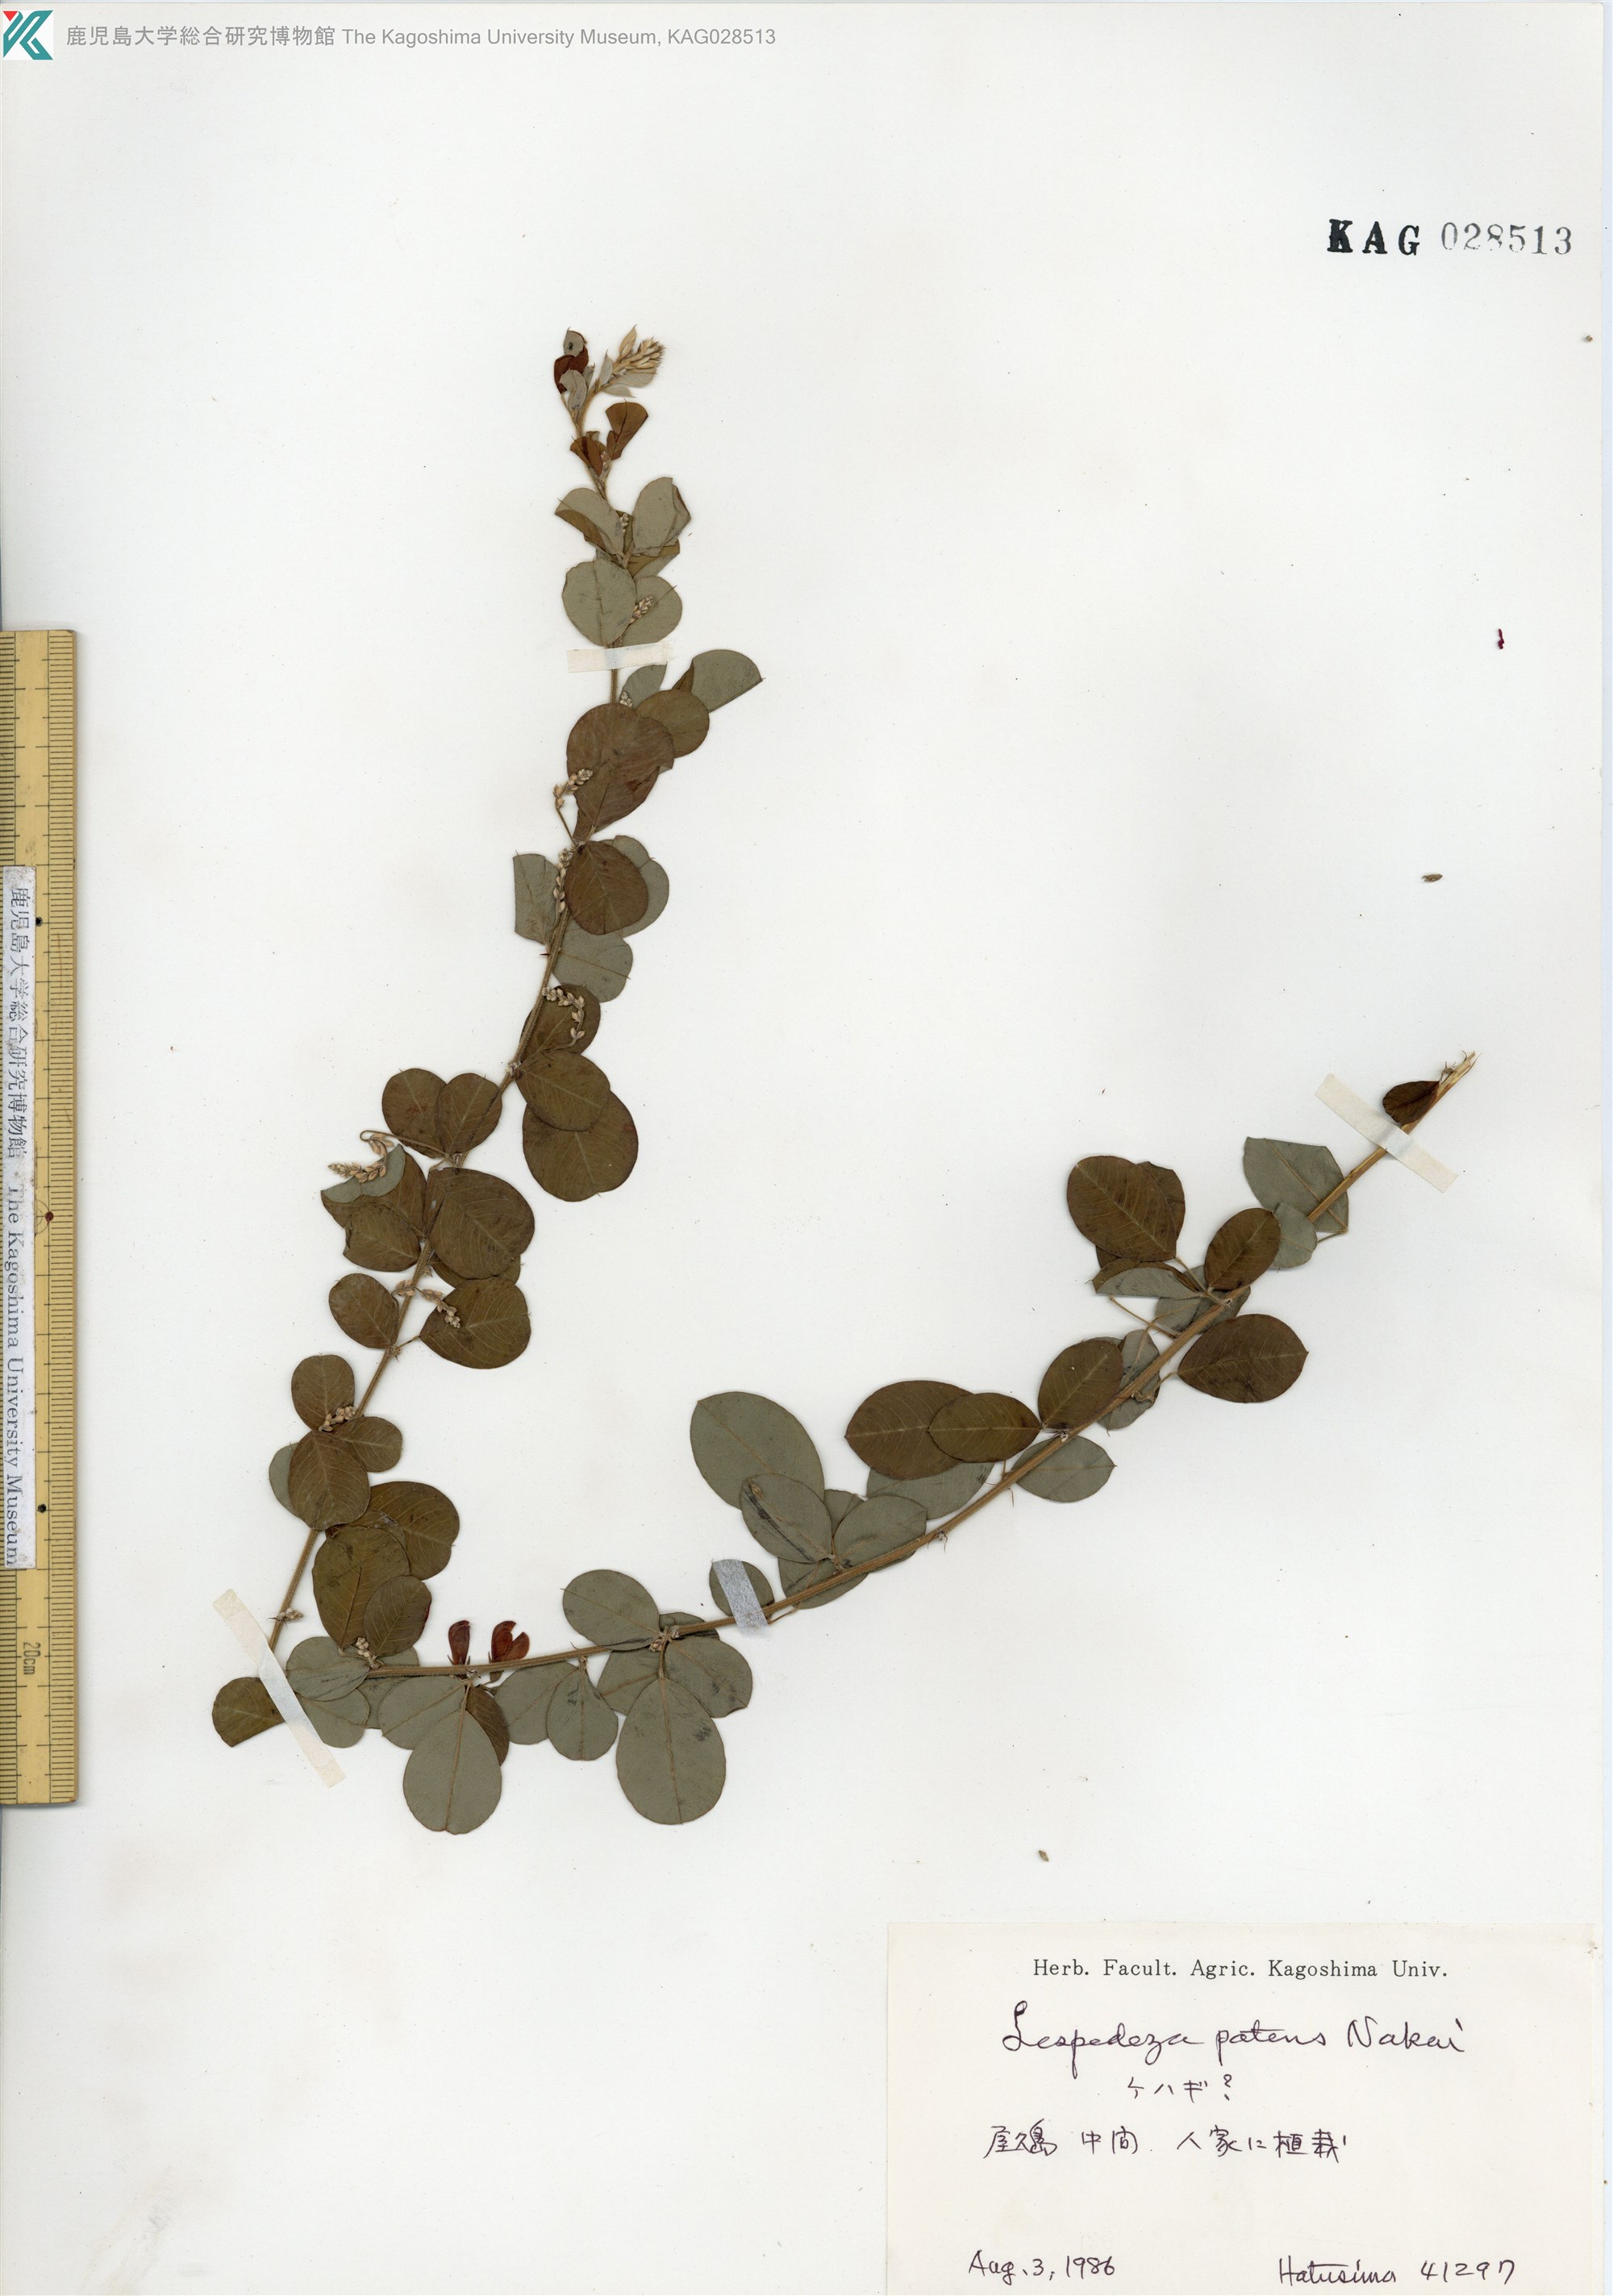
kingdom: Plantae
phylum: Tracheophyta
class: Magnoliopsida
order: Fabales
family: Fabaceae
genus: Lespedeza
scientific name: Lespedeza thunbergii
